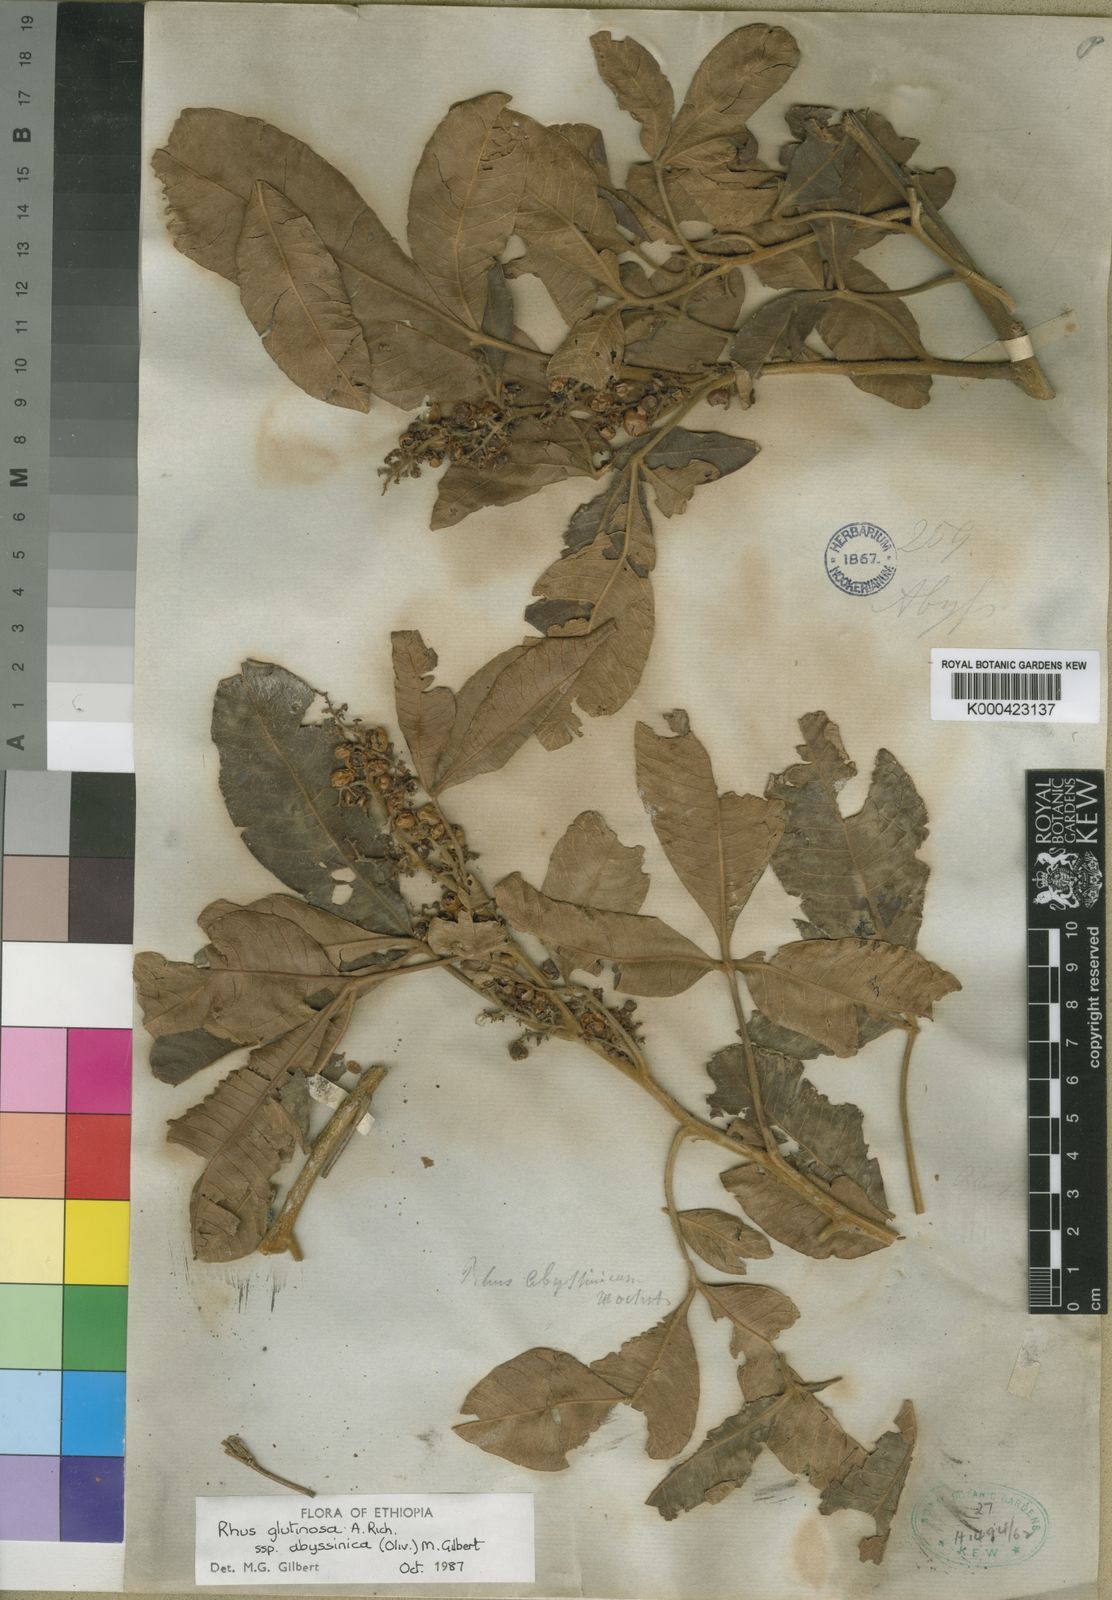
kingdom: Plantae
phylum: Tracheophyta
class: Magnoliopsida
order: Sapindales
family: Anacardiaceae
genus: Searsia
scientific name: Searsia glutinosa
